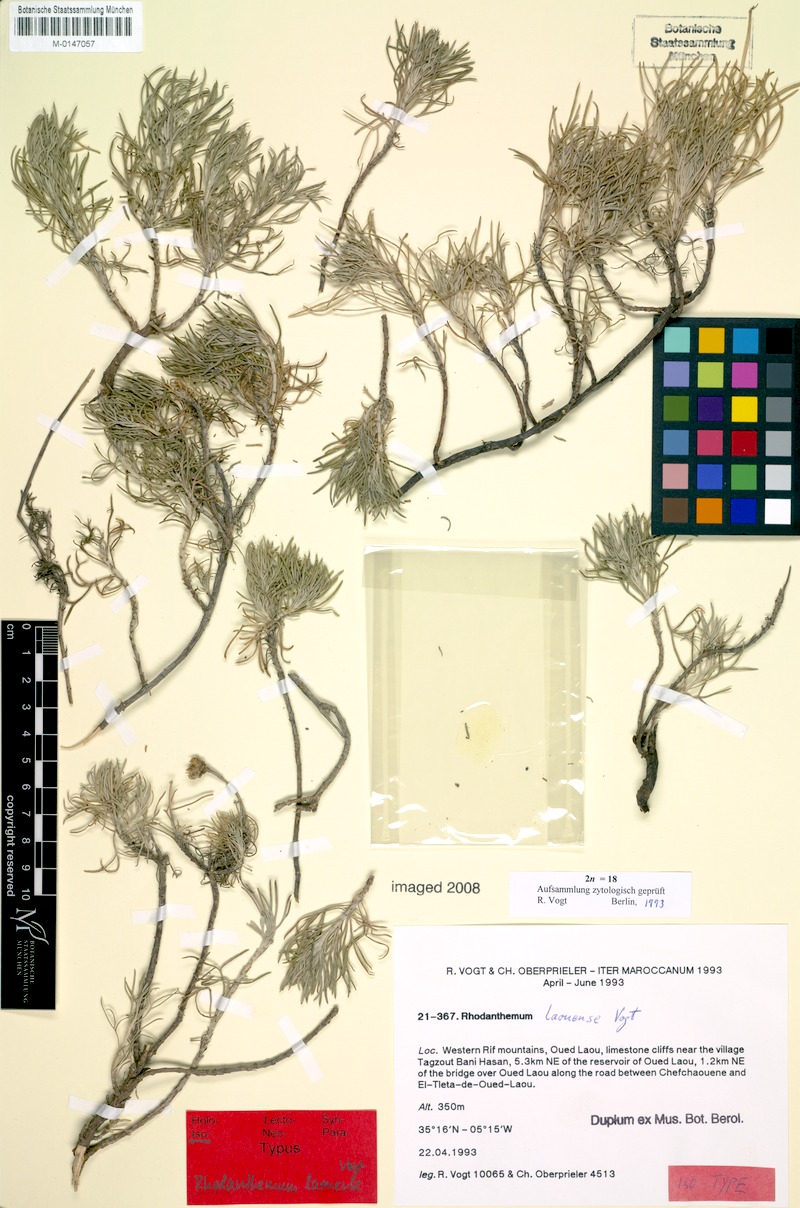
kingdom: Plantae
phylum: Tracheophyta
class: Magnoliopsida
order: Asterales
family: Asteraceae
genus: Rhodanthemum
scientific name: Rhodanthemum laouense
